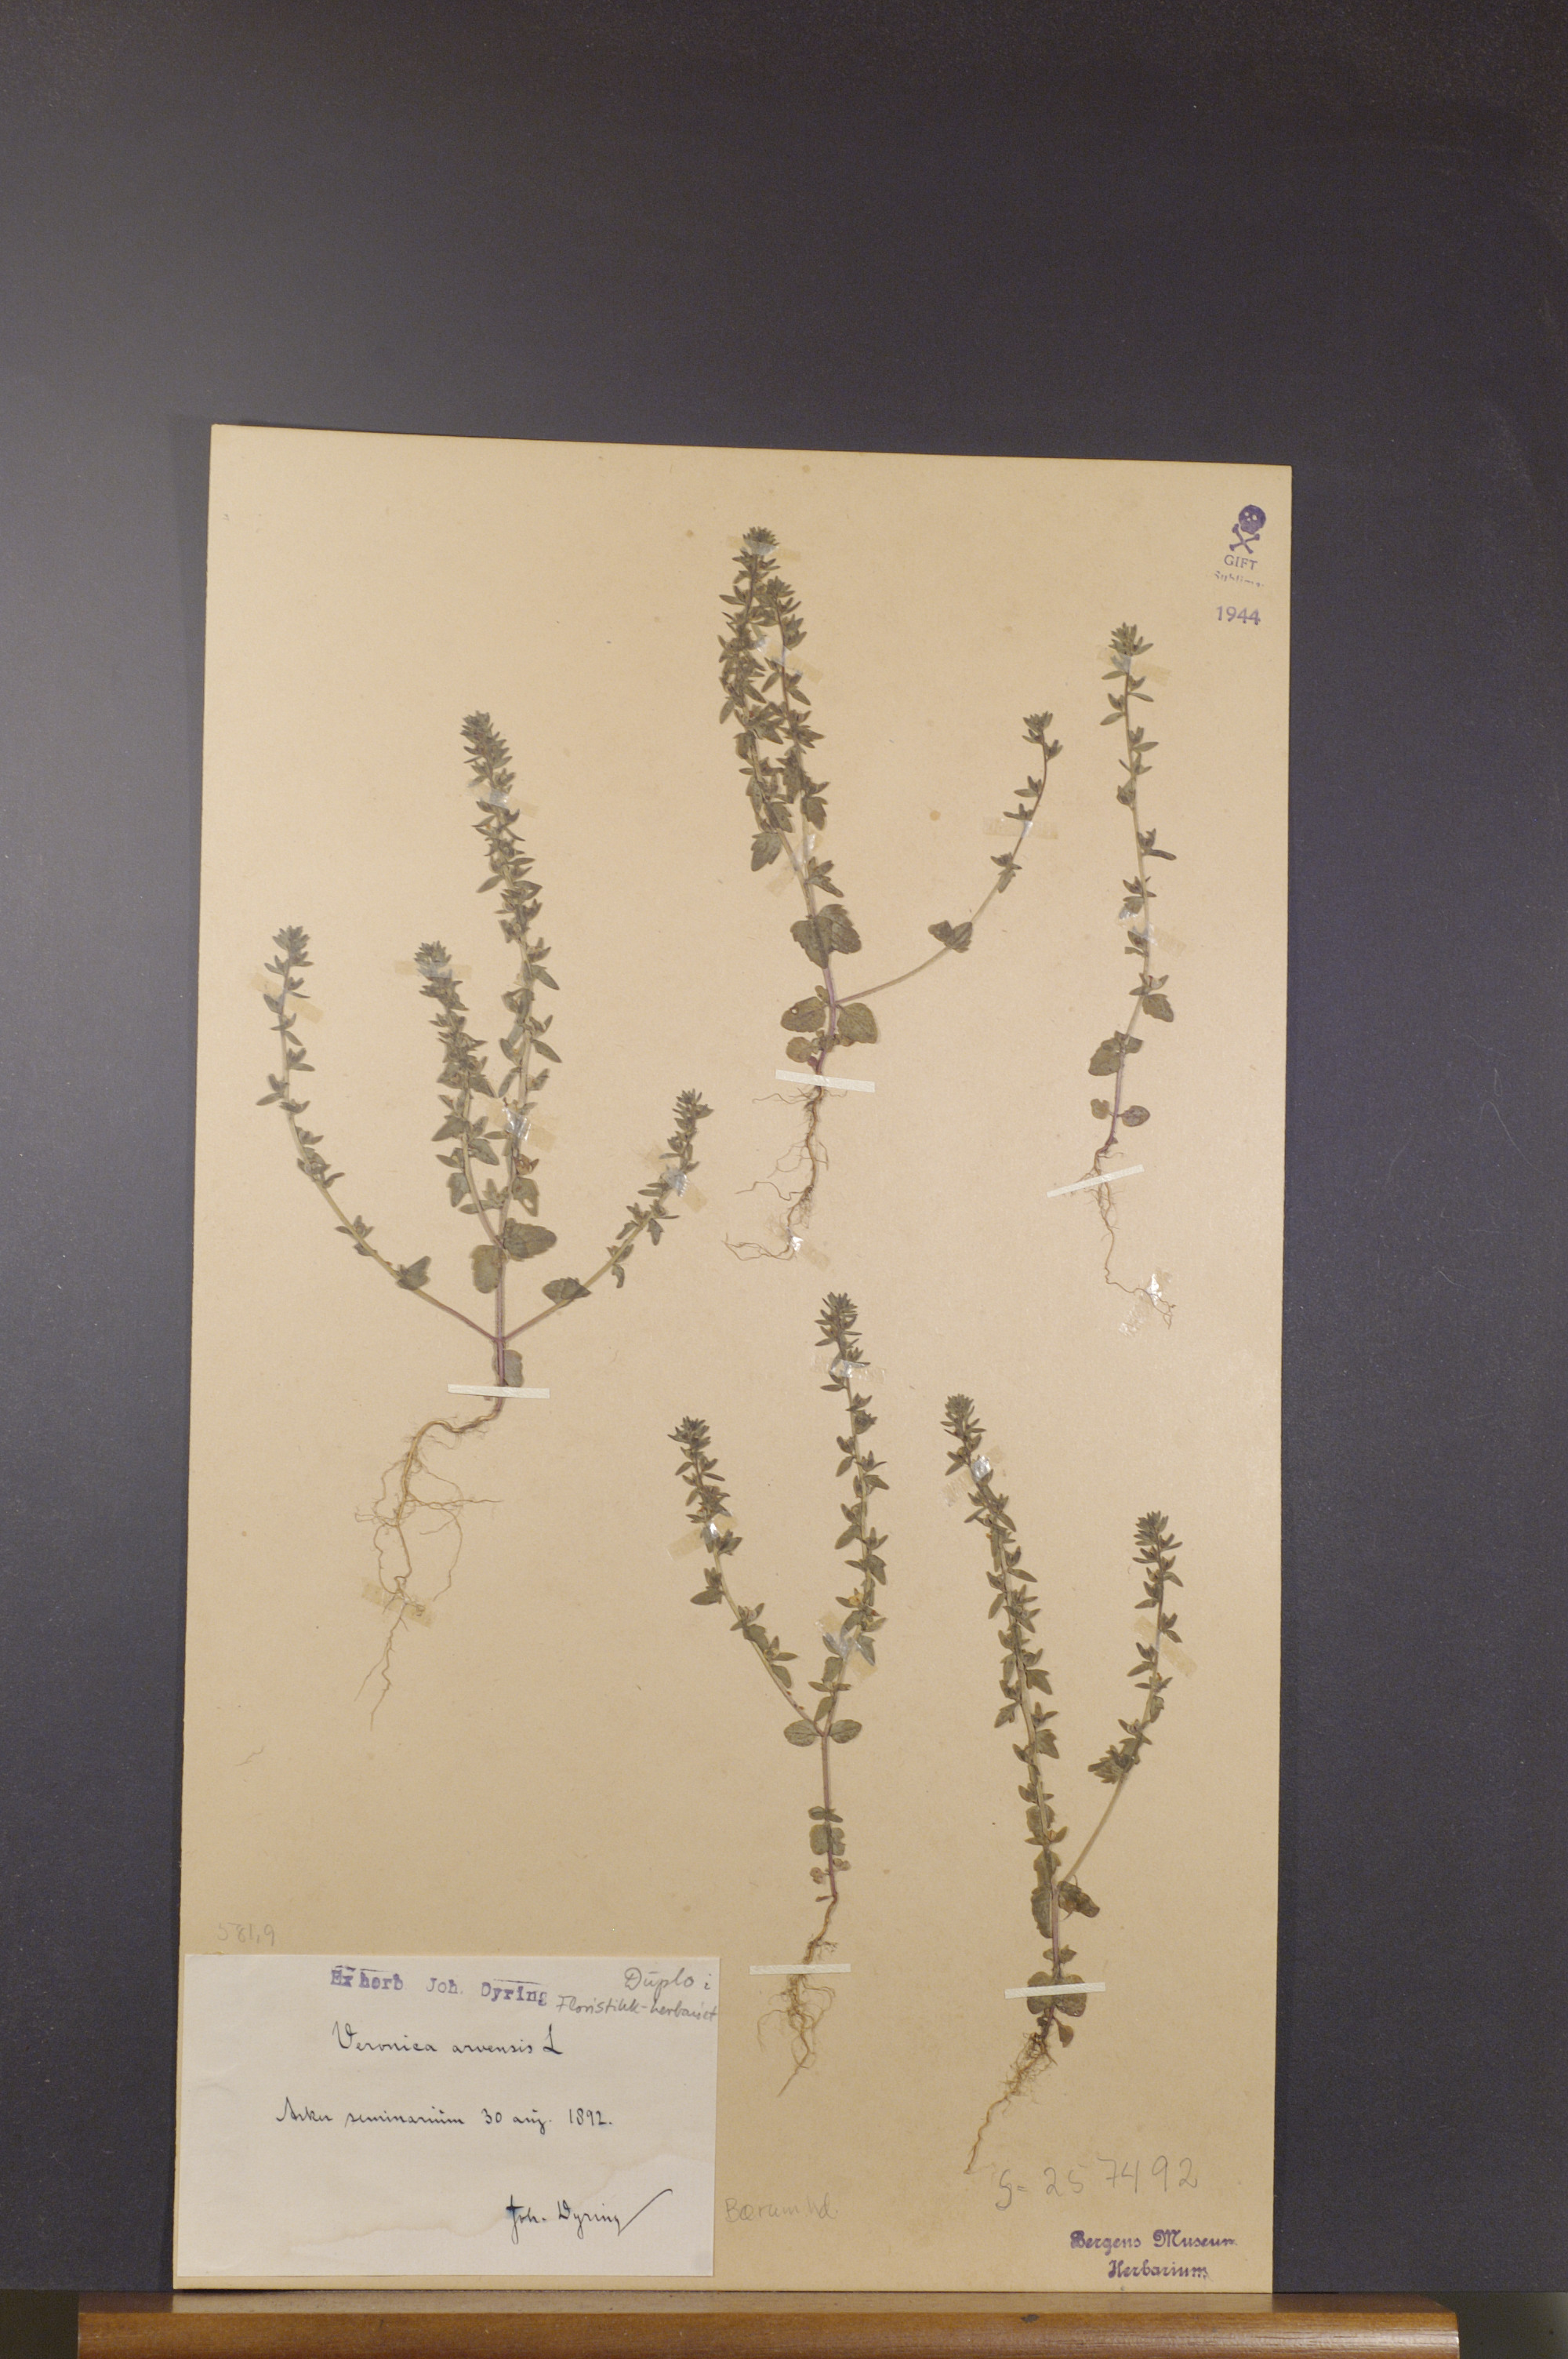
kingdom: Plantae
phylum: Tracheophyta
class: Magnoliopsida
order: Lamiales
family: Plantaginaceae
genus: Veronica
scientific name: Veronica arvensis
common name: Corn speedwell
